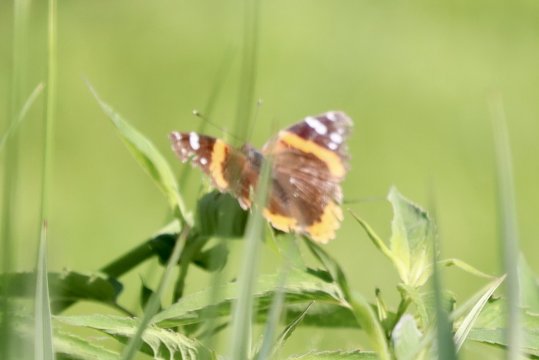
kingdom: Animalia
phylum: Arthropoda
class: Insecta
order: Lepidoptera
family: Nymphalidae
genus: Vanessa
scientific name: Vanessa atalanta
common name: Red Admiral
